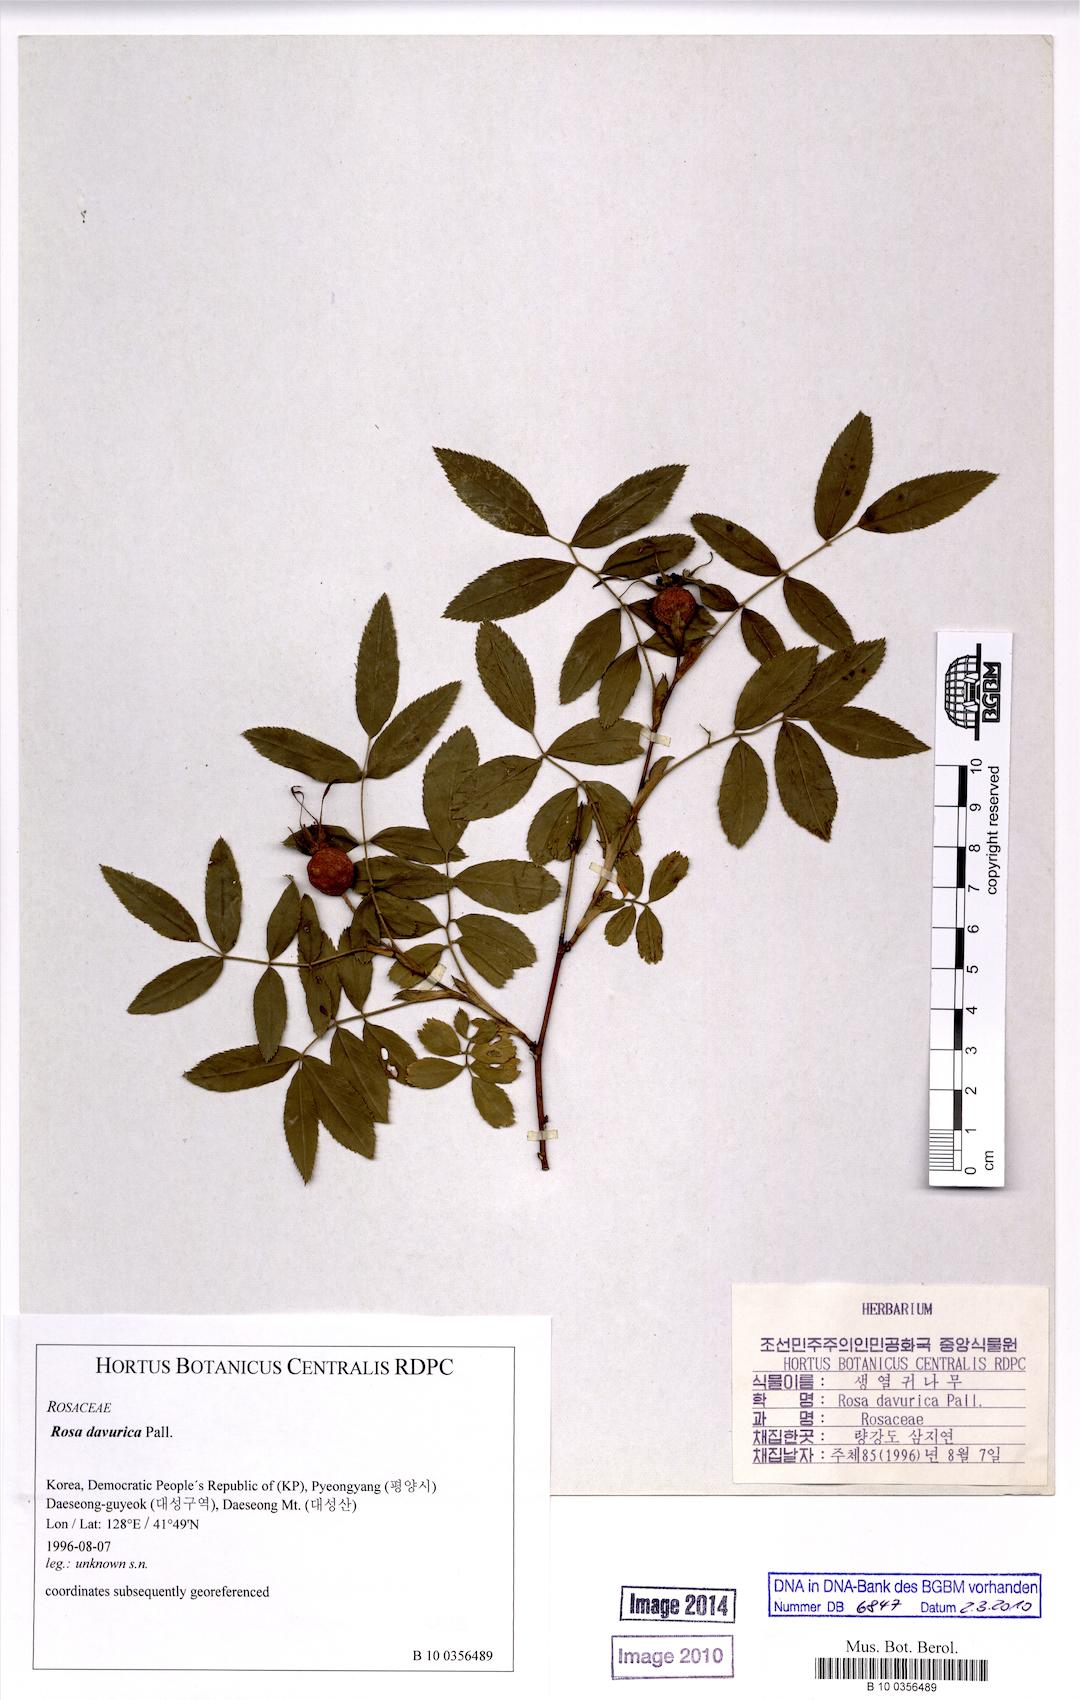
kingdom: Plantae
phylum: Tracheophyta
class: Magnoliopsida
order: Rosales
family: Rosaceae
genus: Rosa
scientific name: Rosa davurica
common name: Amur rose
